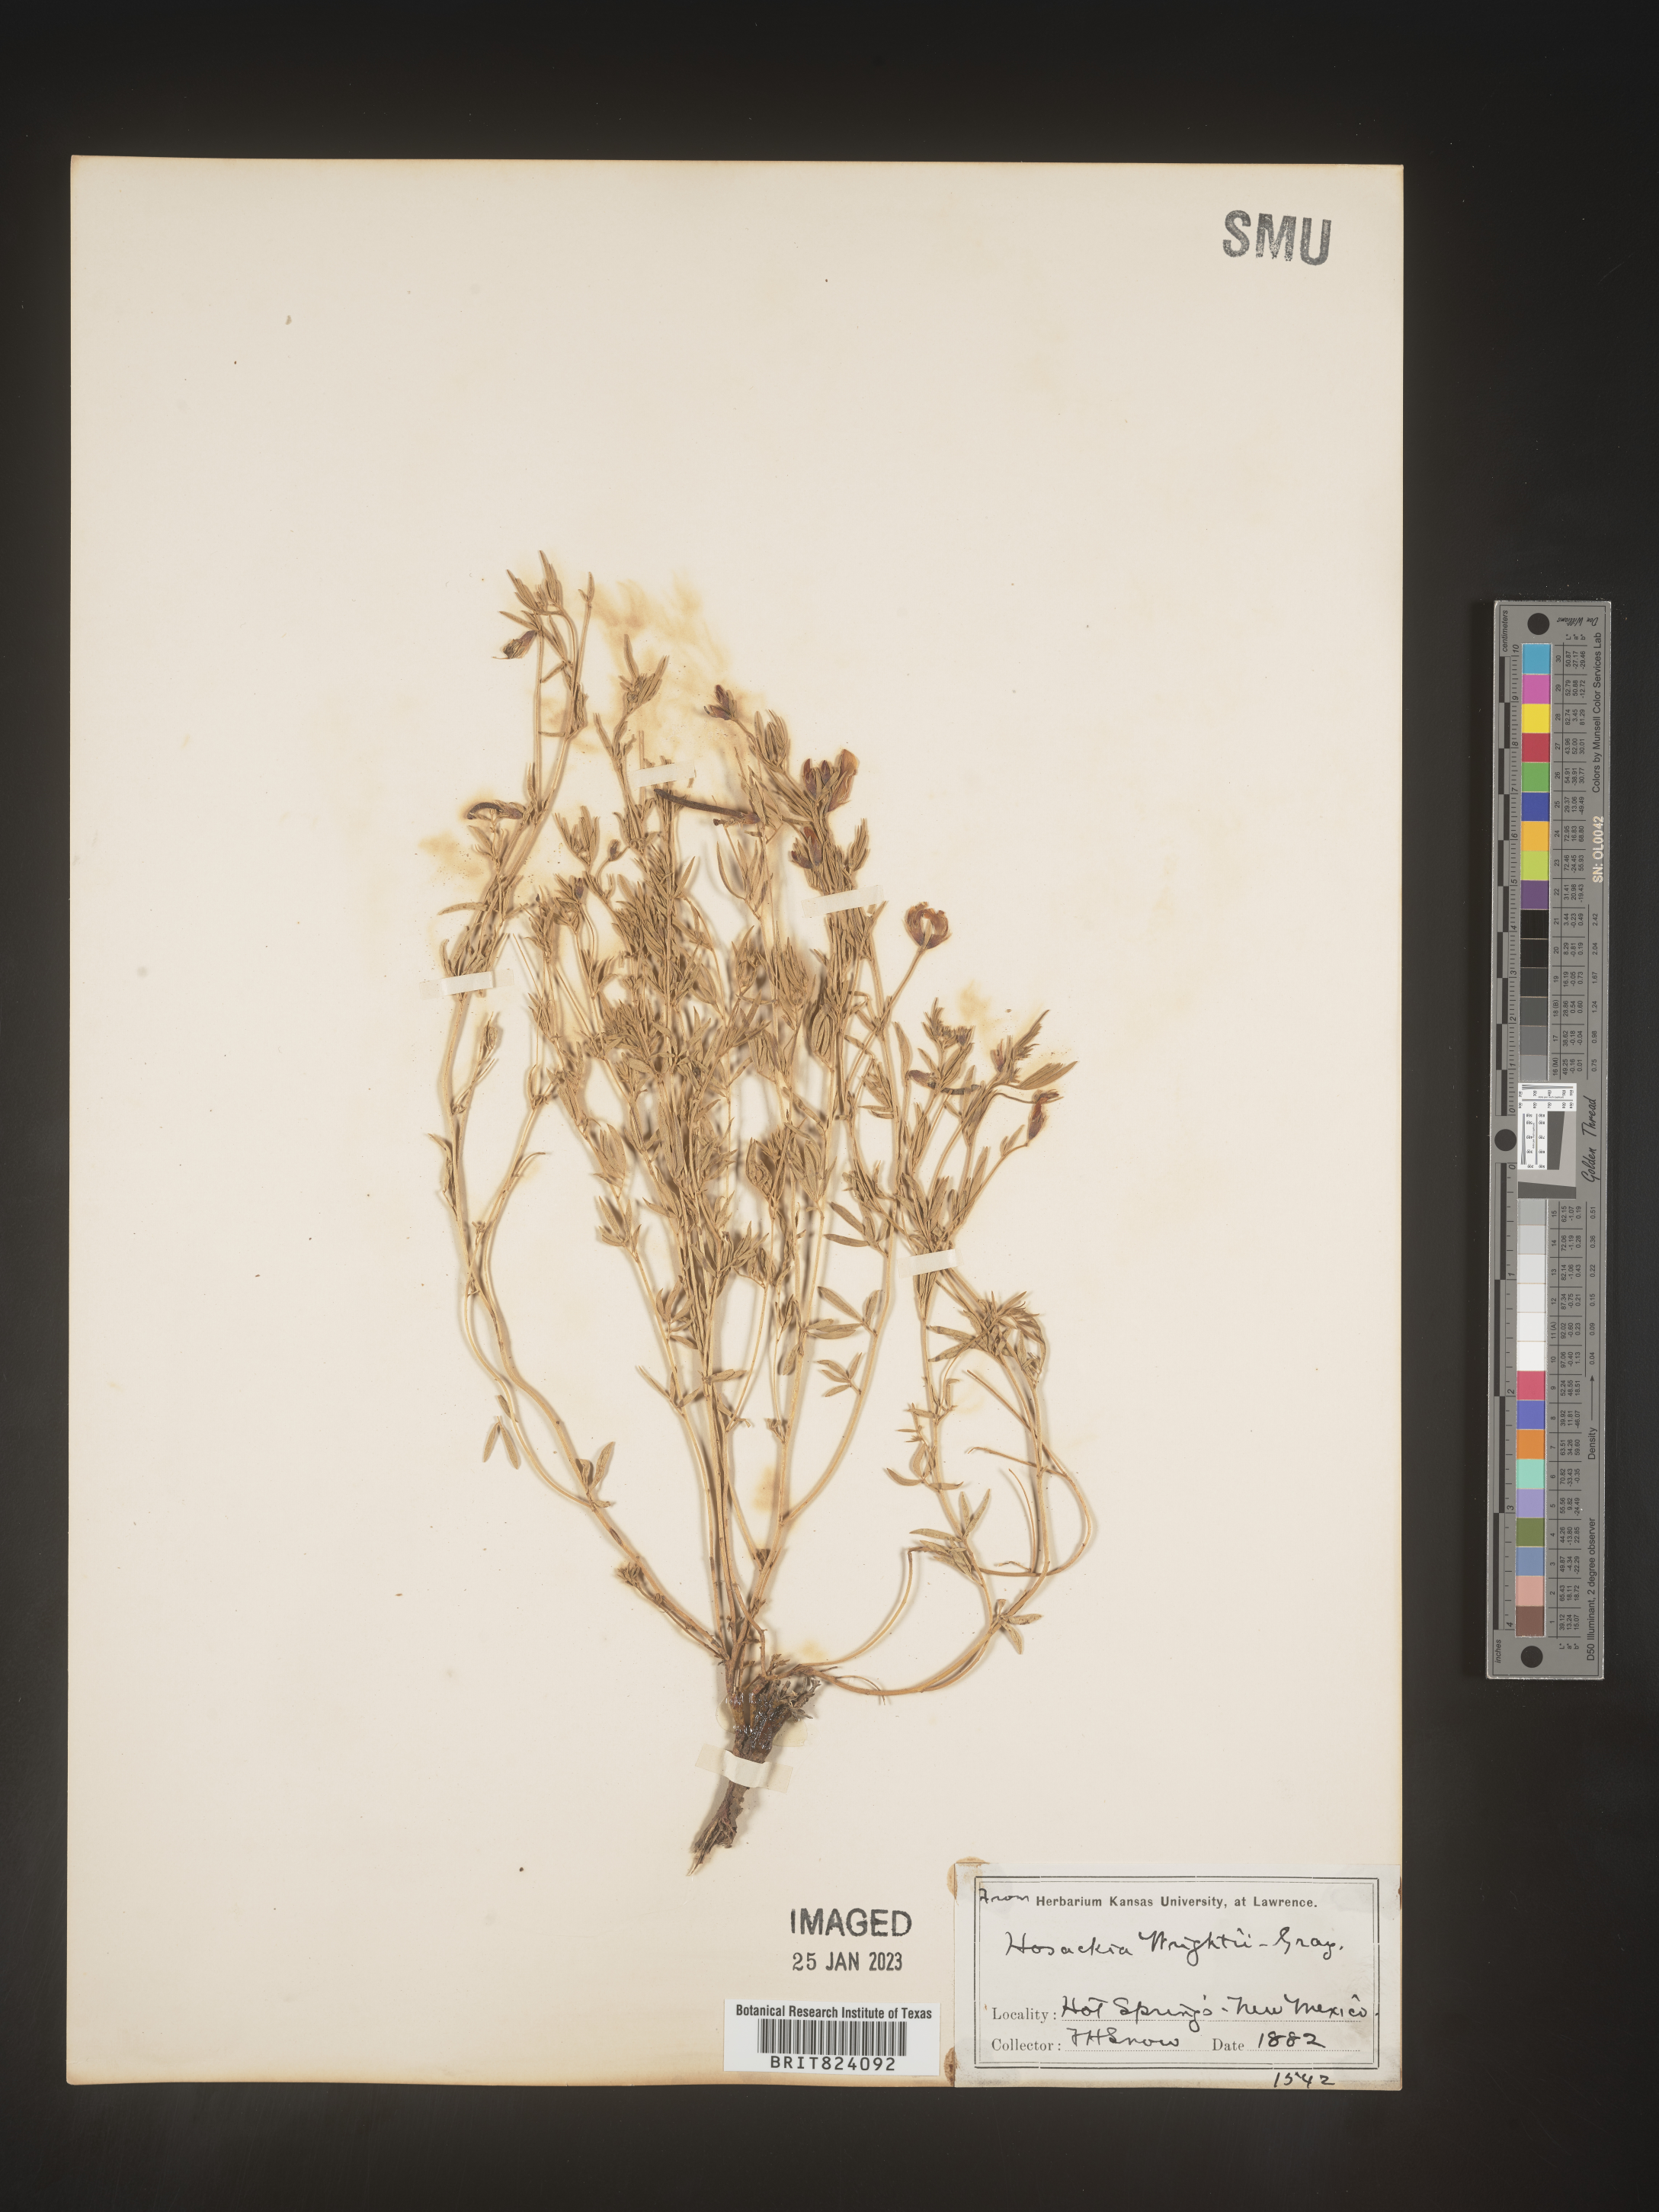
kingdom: Plantae
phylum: Tracheophyta
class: Magnoliopsida
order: Fabales
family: Fabaceae
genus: Acmispon
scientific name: Acmispon wrightii
